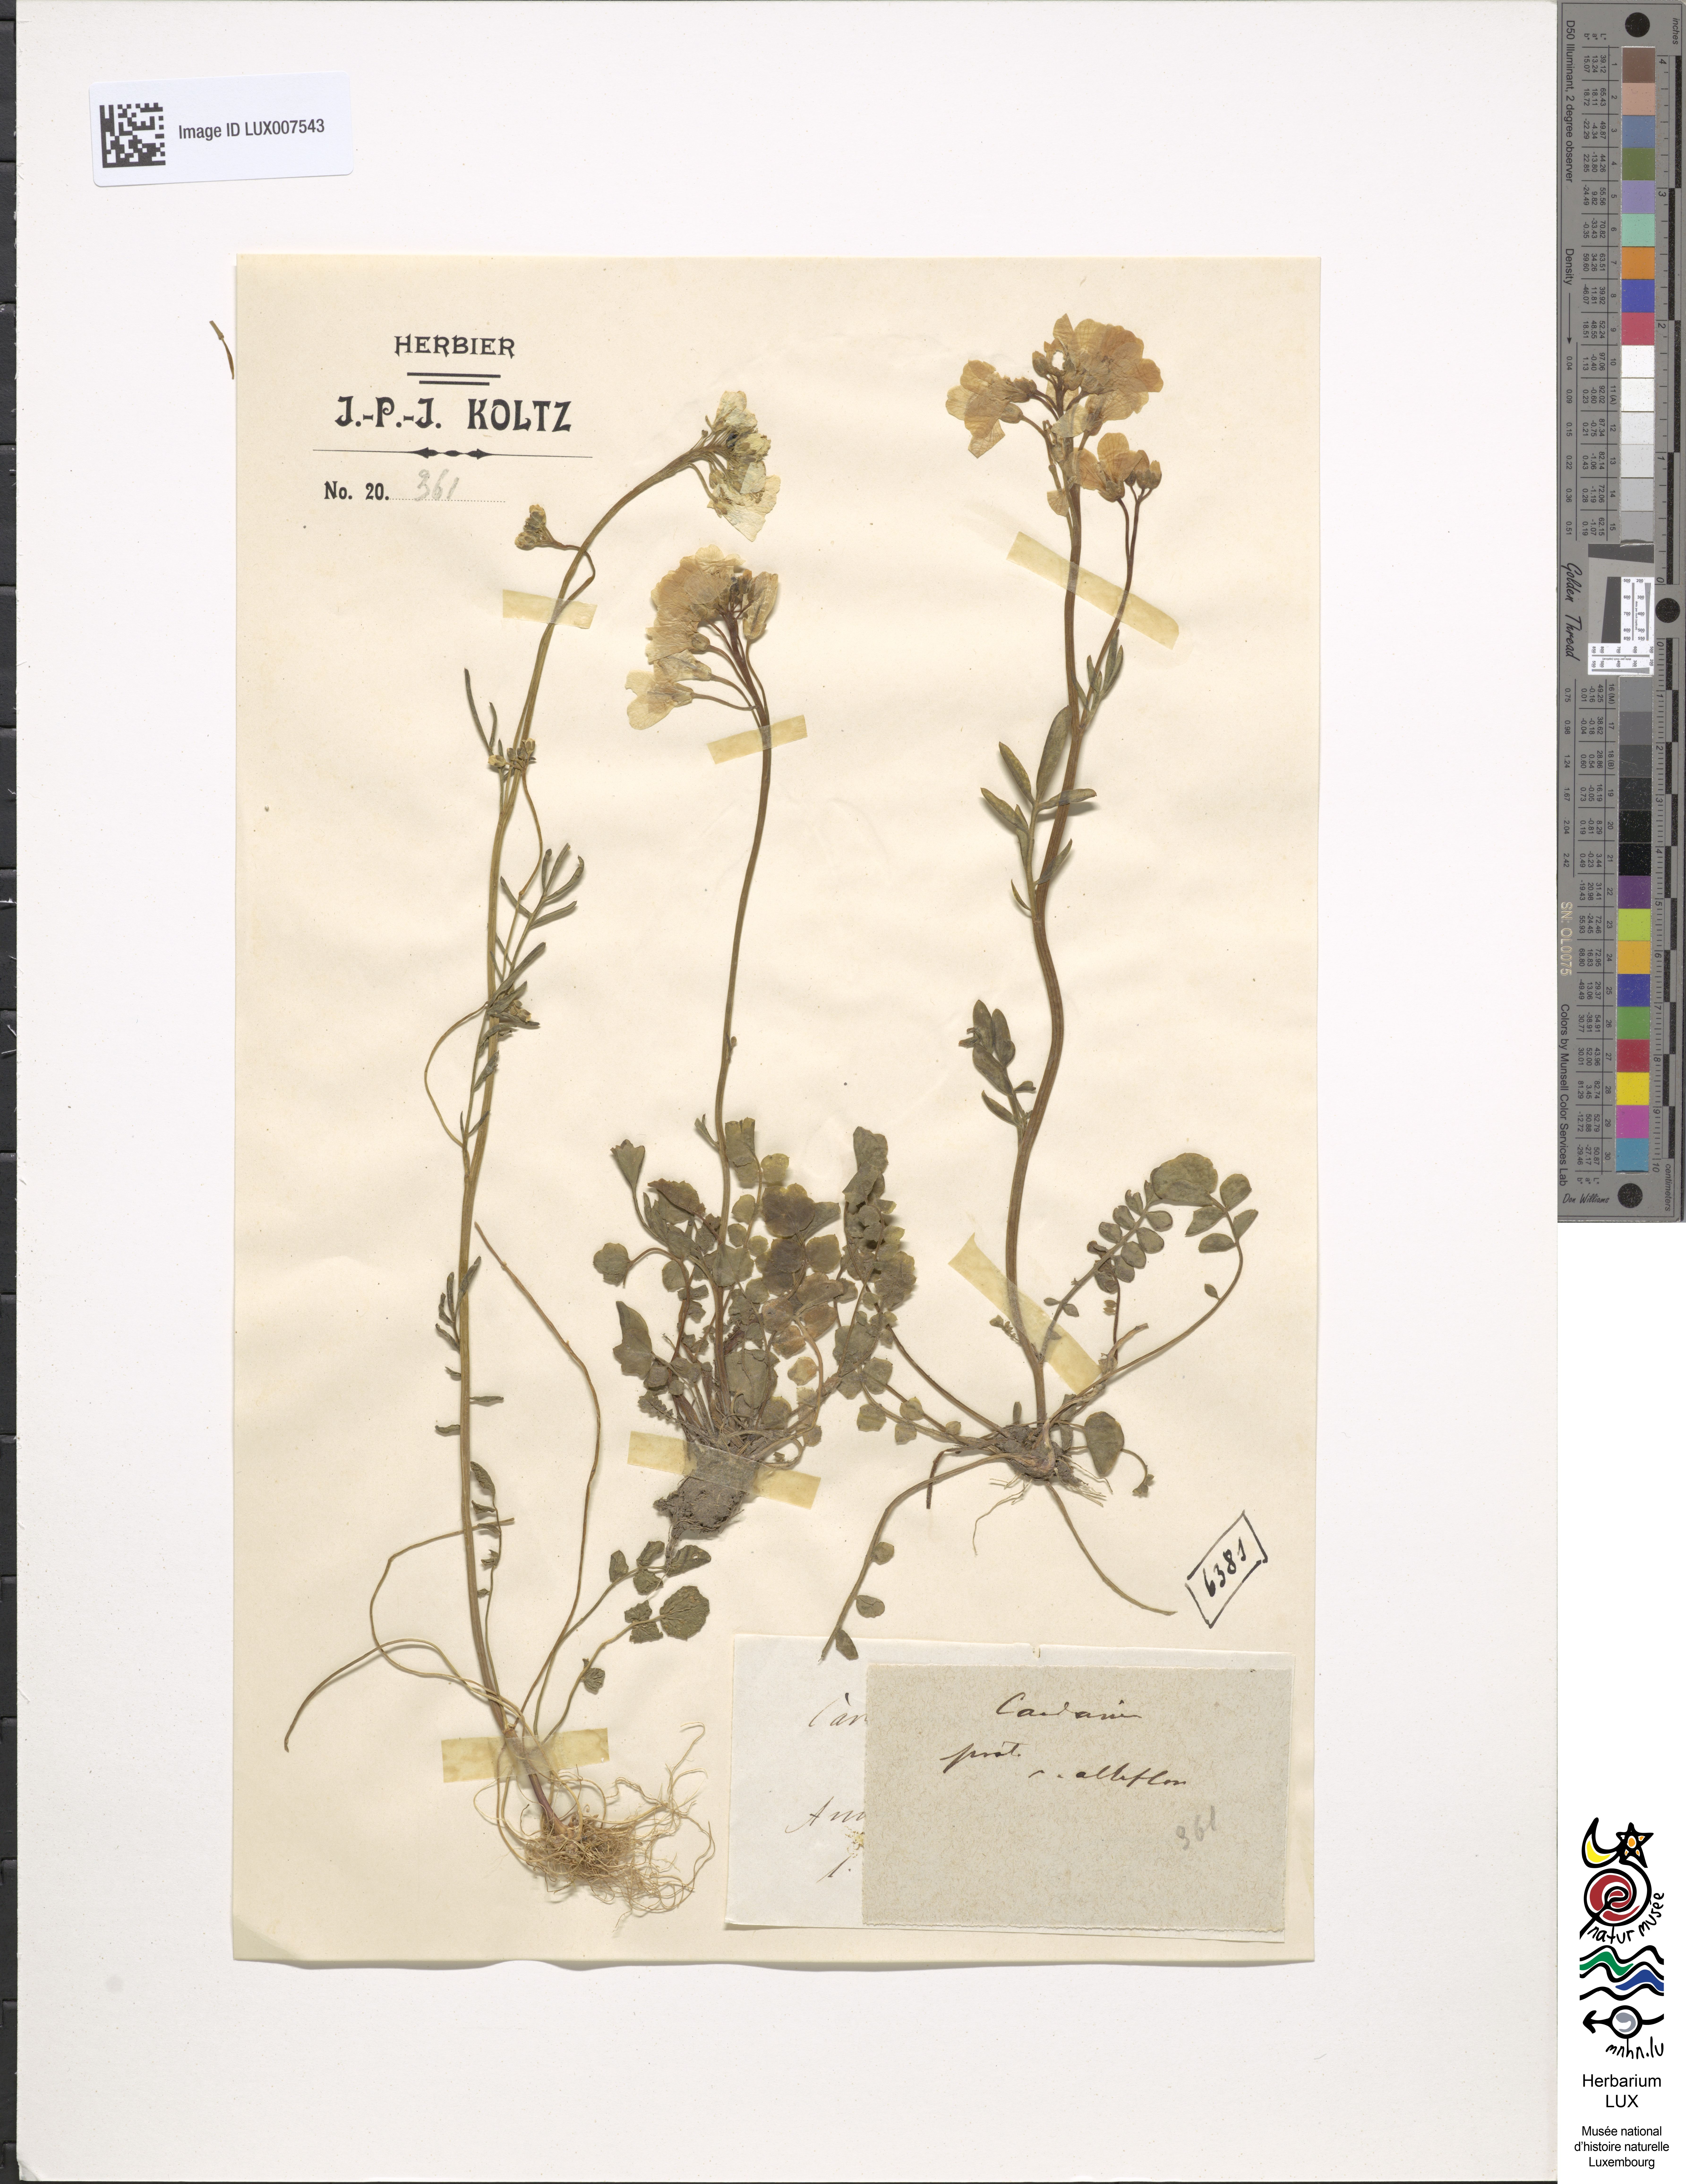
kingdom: Plantae
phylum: Tracheophyta
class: Magnoliopsida
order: Brassicales
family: Brassicaceae
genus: Cardamine
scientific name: Cardamine pratensis
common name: Cuckoo flower
